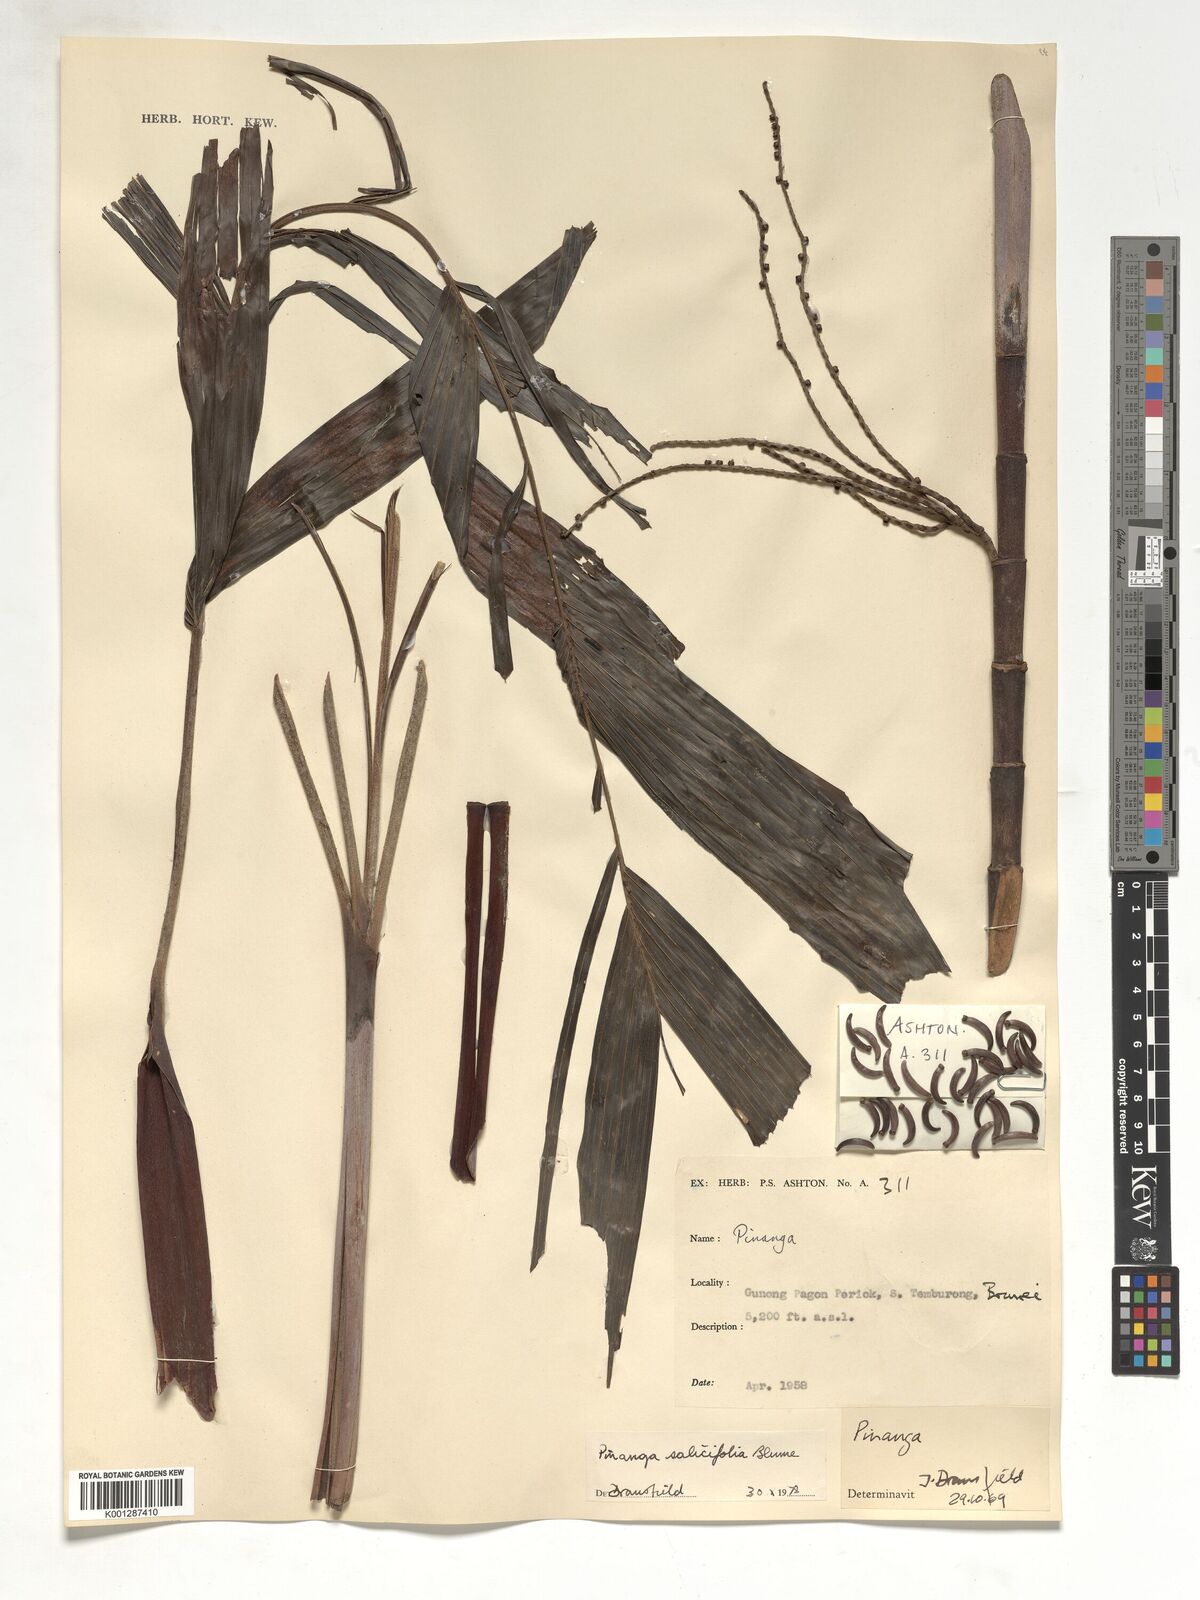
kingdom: Plantae
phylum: Tracheophyta
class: Liliopsida
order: Arecales
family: Arecaceae
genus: Pinanga
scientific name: Pinanga salicifolia
